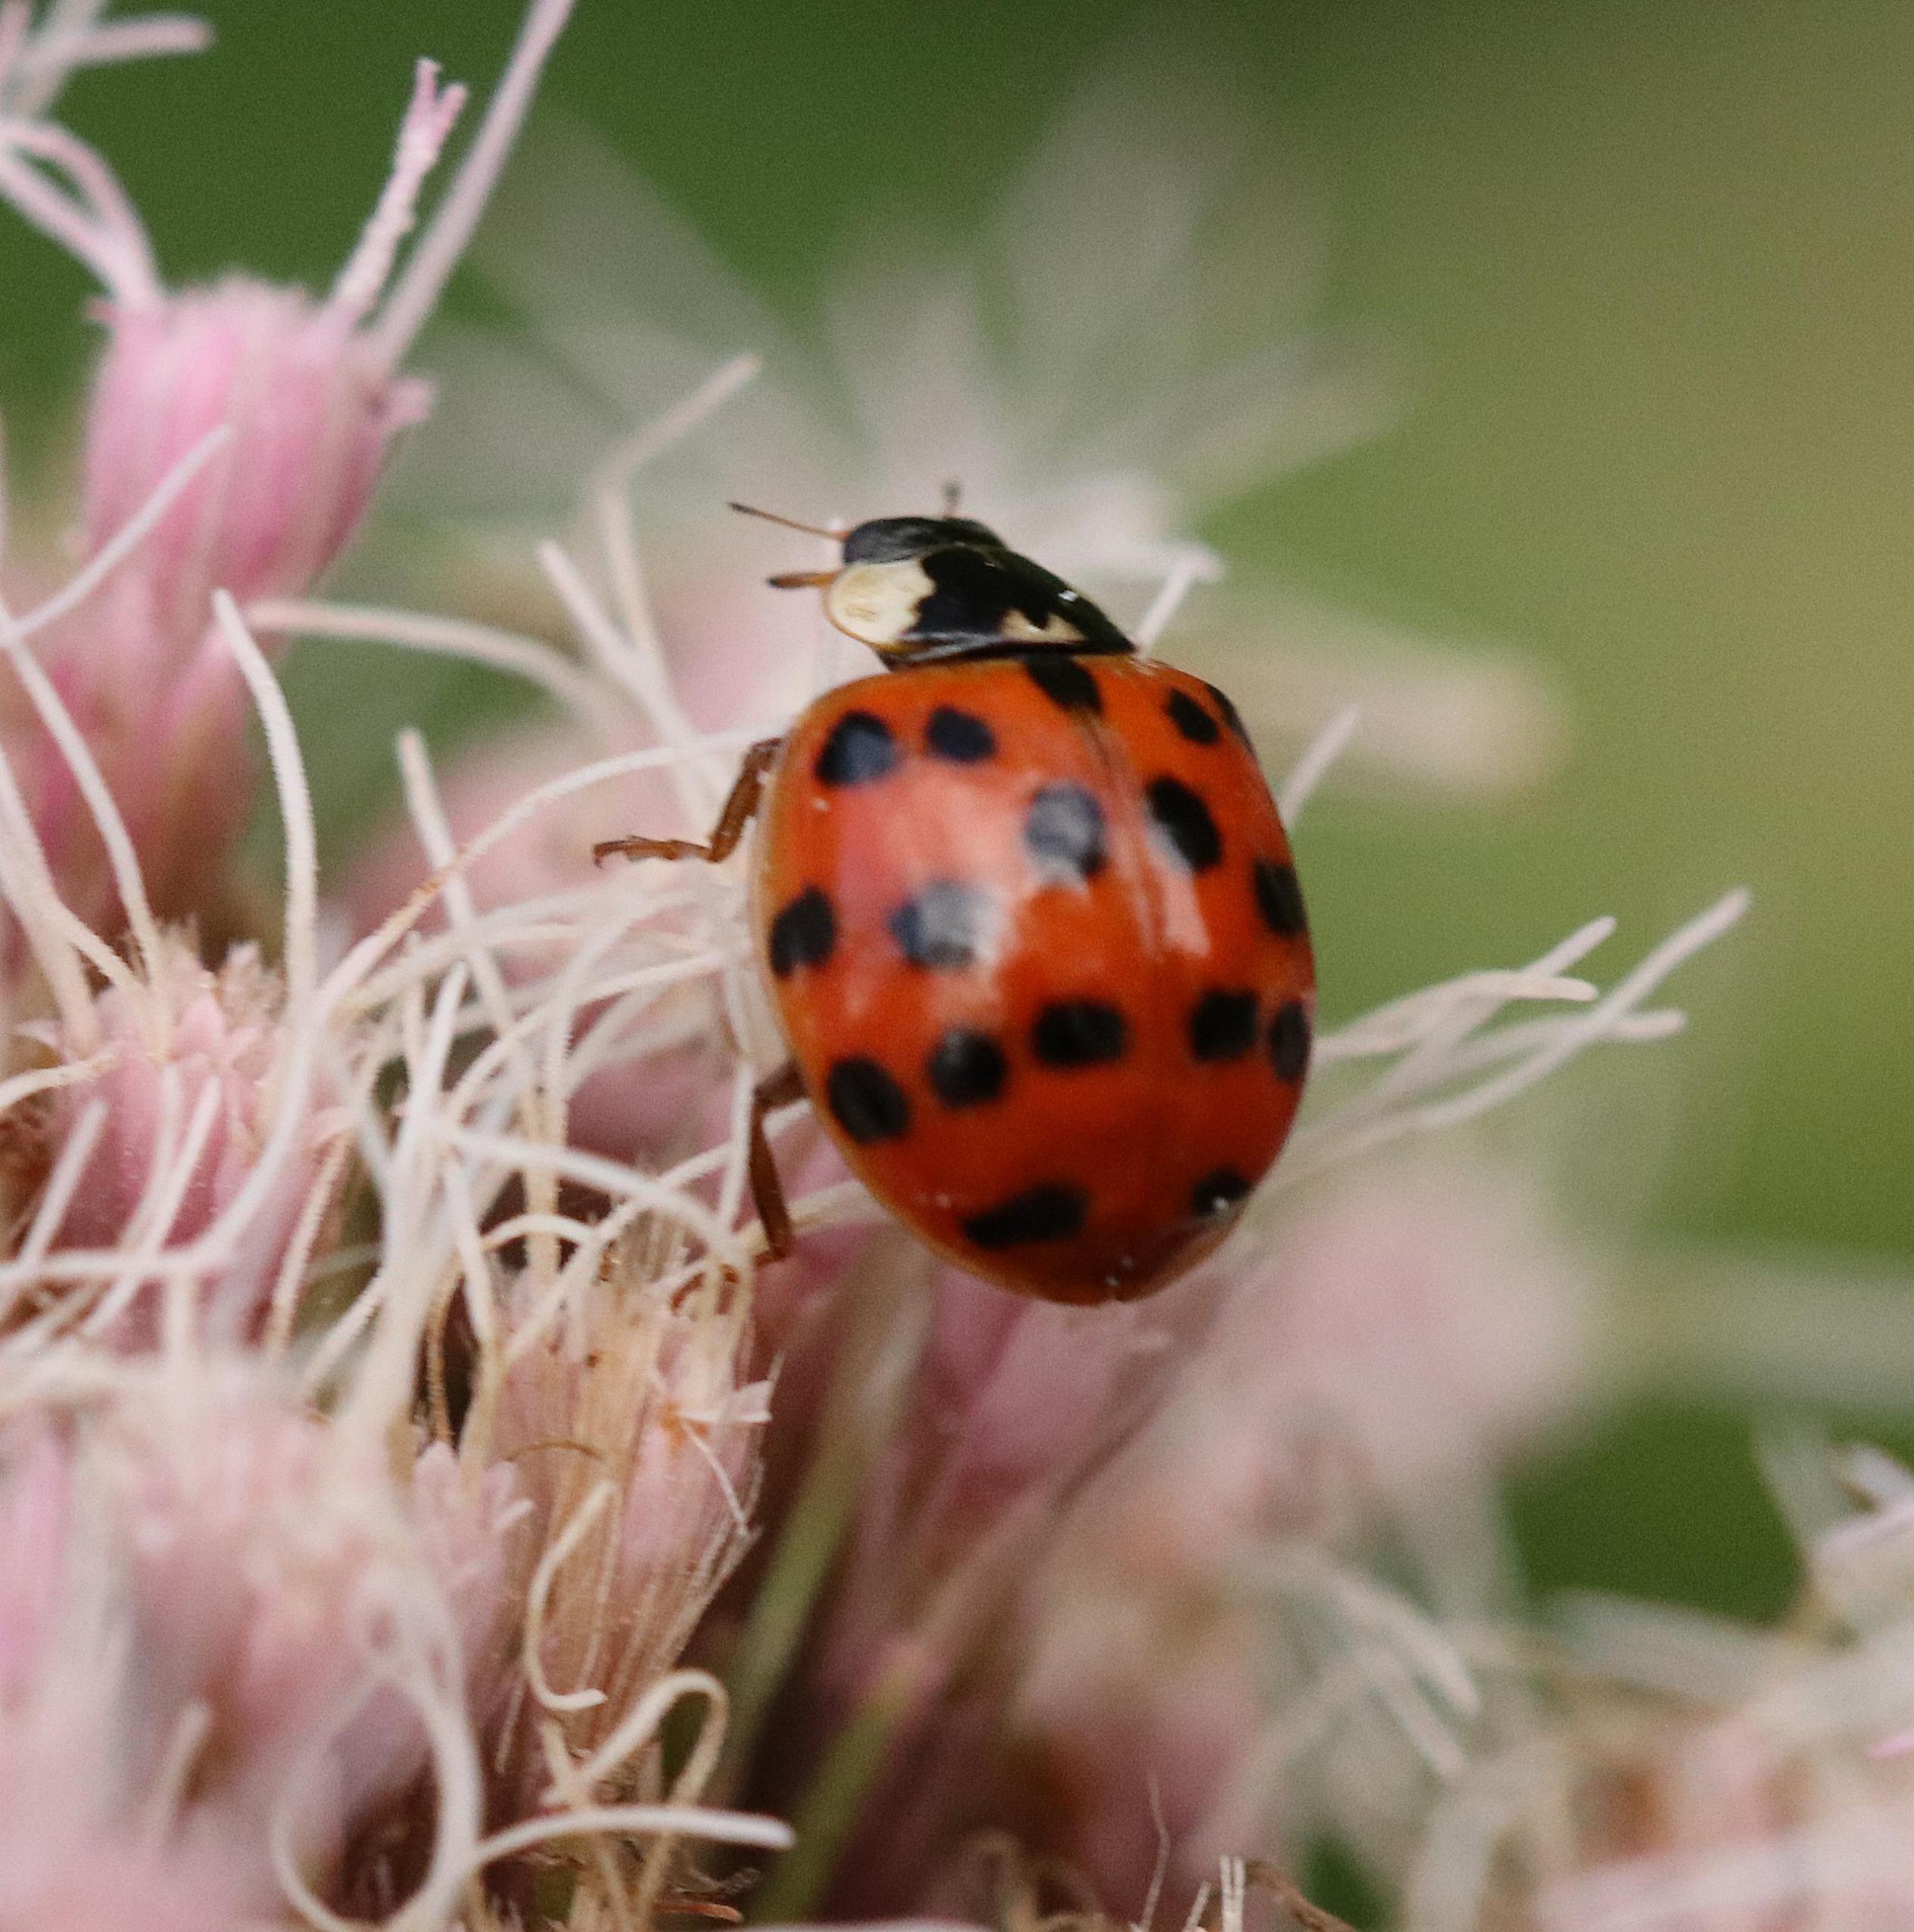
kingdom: Animalia
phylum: Arthropoda
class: Insecta
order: Coleoptera
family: Coccinellidae
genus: Harmonia
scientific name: Harmonia axyridis
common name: Harlekinmariehøne
